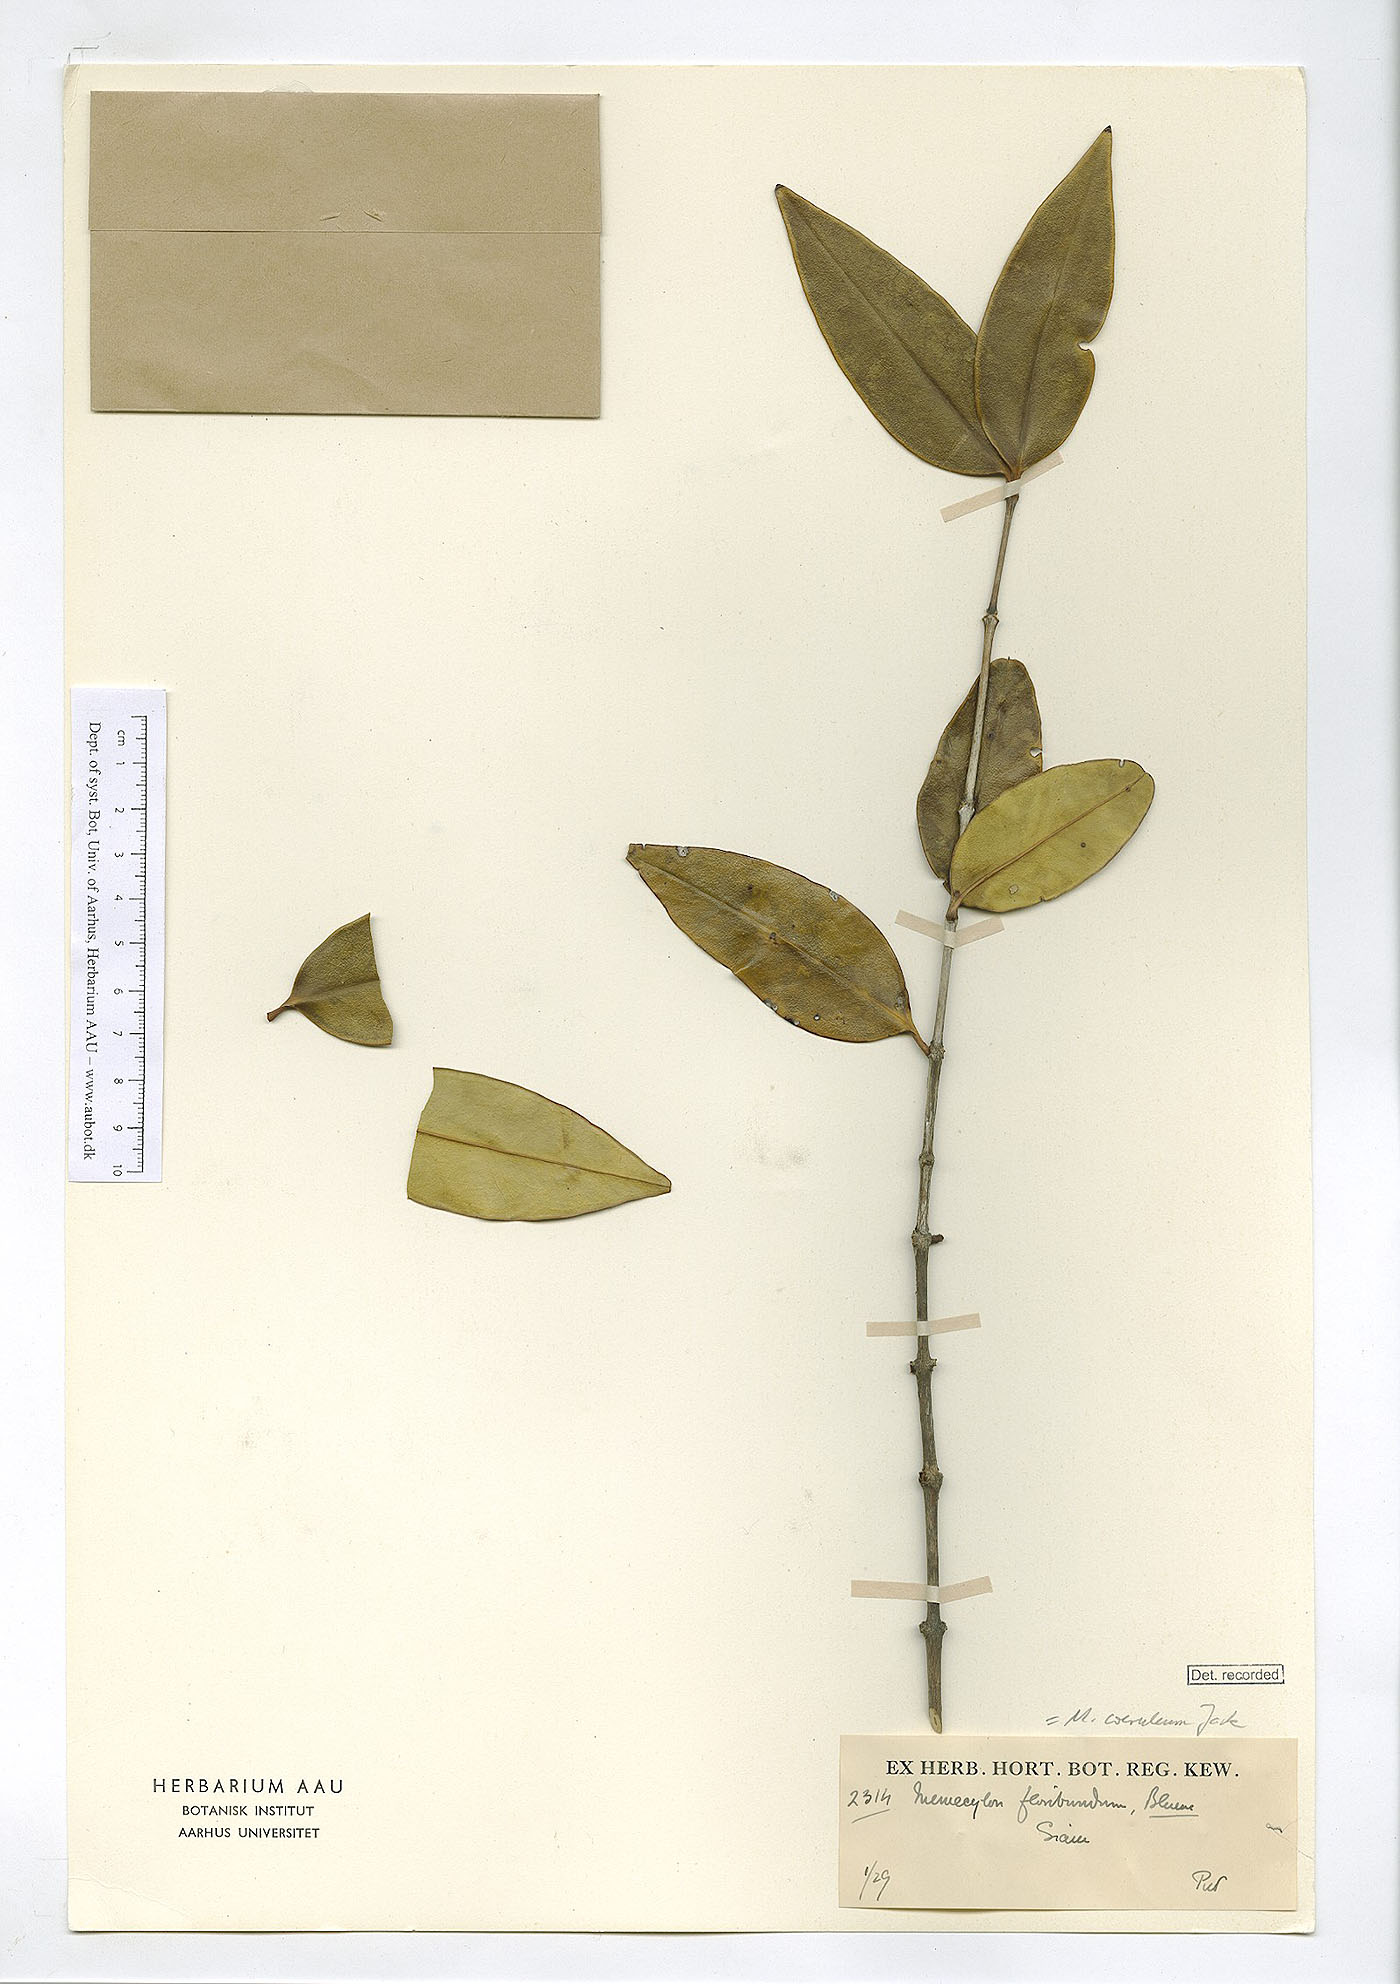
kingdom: Plantae
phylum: Tracheophyta
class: Magnoliopsida
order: Myrtales
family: Melastomataceae
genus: Memecylon
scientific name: Memecylon caeruleum
